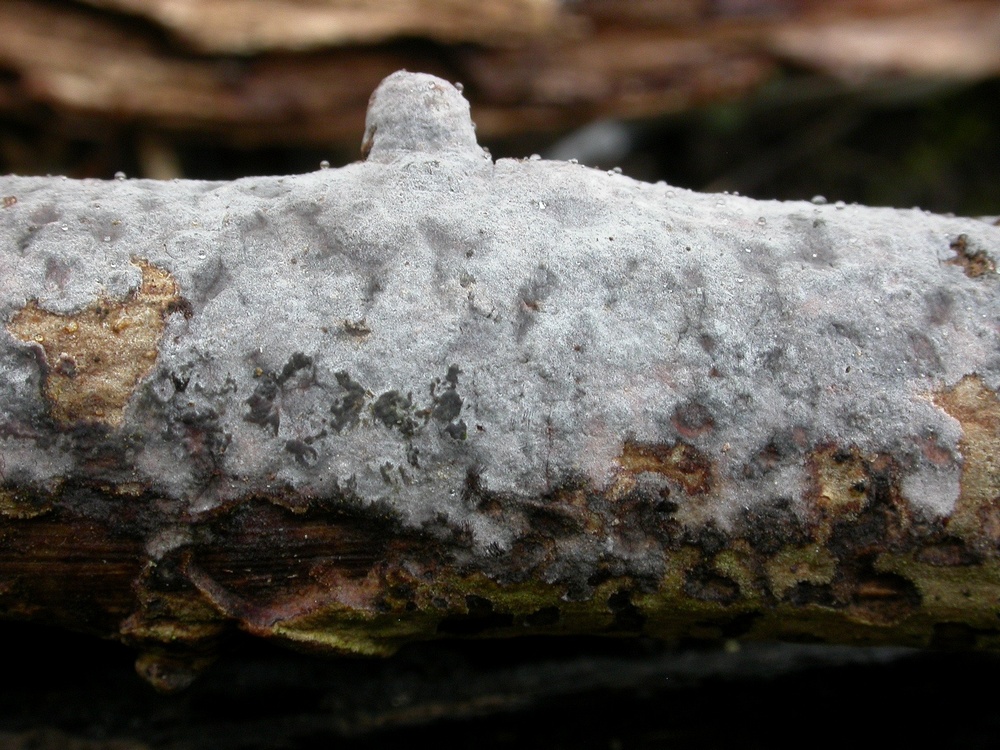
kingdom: Fungi
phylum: Basidiomycota
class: Agaricomycetes
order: Russulales
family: Peniophoraceae
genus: Peniophora
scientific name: Peniophora lycii
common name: grynet voksskind
